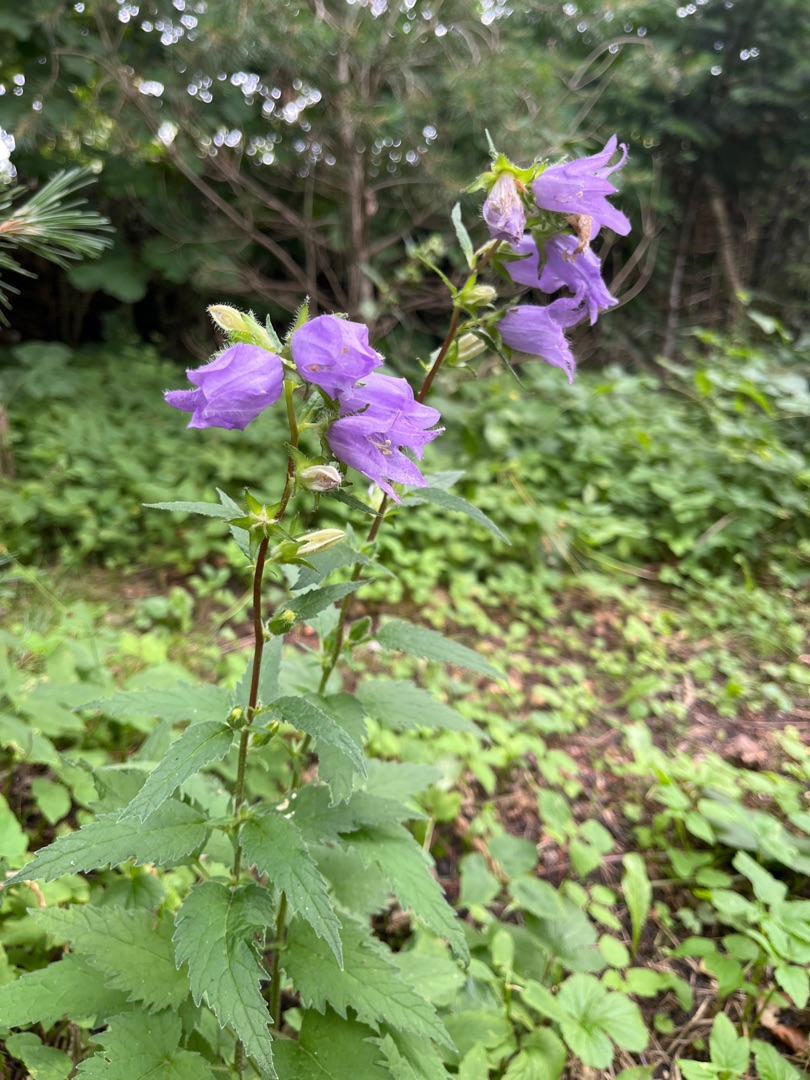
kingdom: Plantae
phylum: Tracheophyta
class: Magnoliopsida
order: Asterales
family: Campanulaceae
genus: Campanula
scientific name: Campanula trachelium
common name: Nælde-klokke
